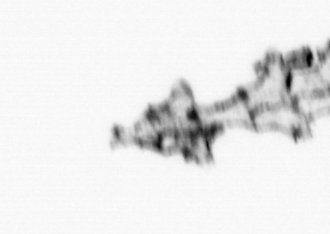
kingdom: Animalia
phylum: Cnidaria
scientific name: Cnidaria
